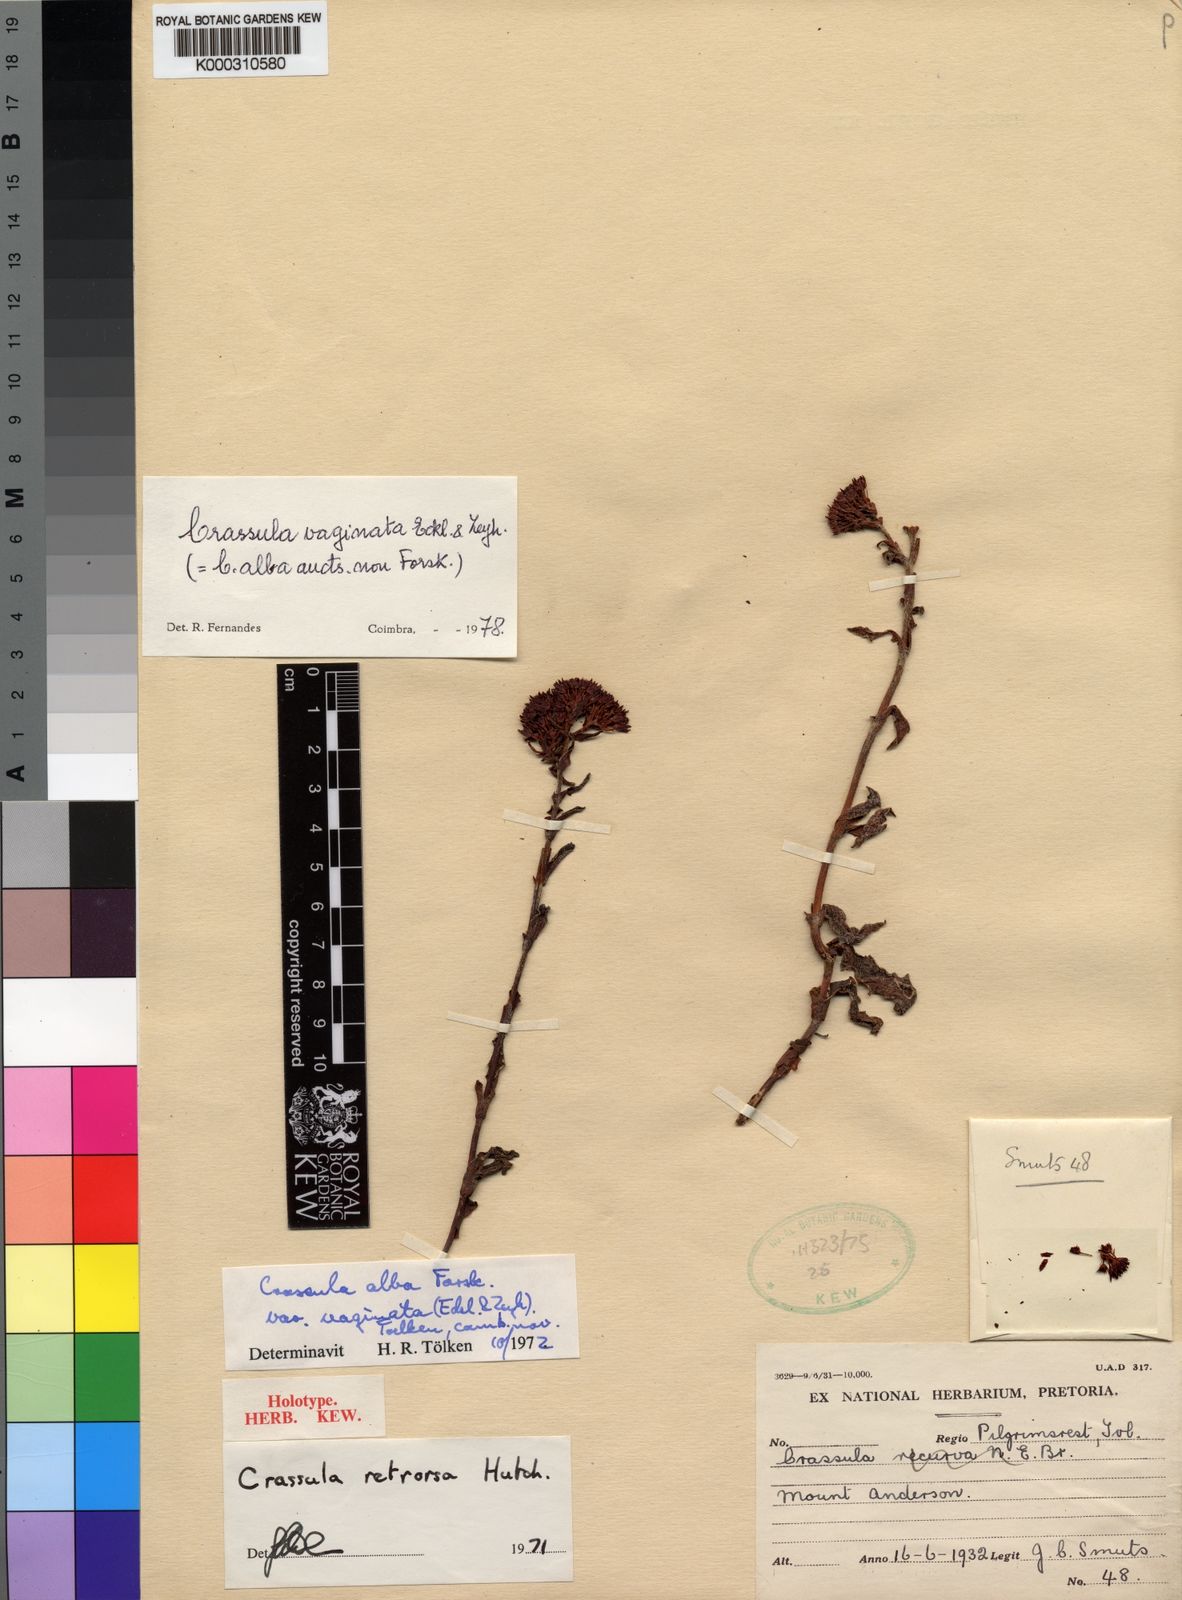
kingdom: Plantae
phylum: Tracheophyta
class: Magnoliopsida
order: Saxifragales
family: Crassulaceae
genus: Crassula
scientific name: Crassula vaginata
